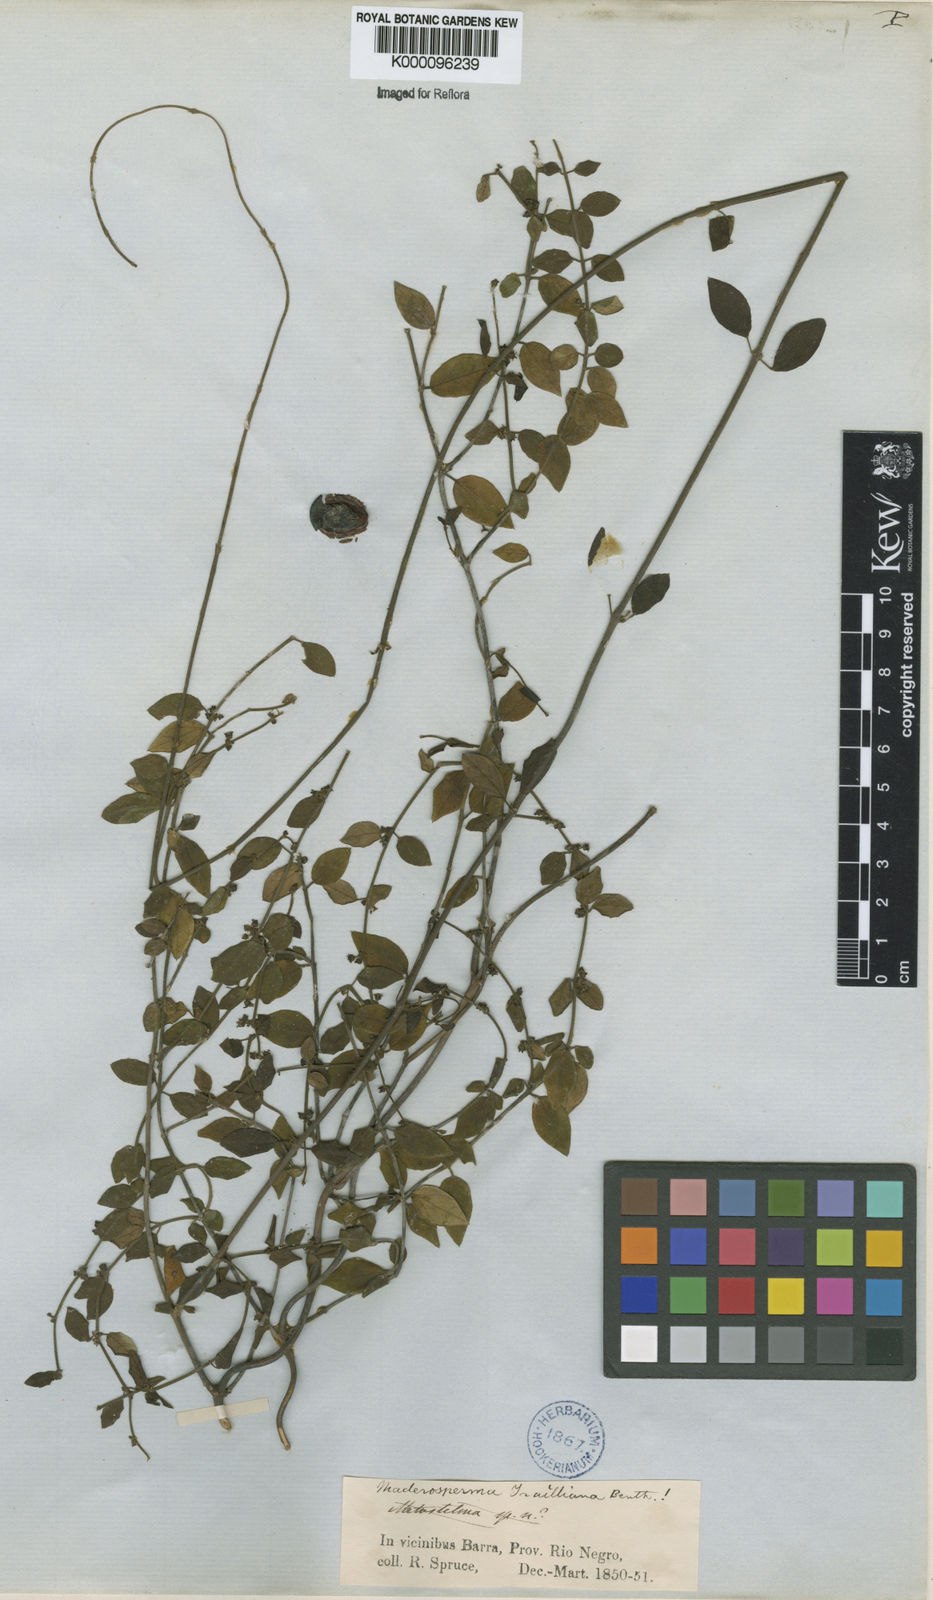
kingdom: Plantae
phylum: Tracheophyta
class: Magnoliopsida
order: Gentianales
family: Apocynaceae
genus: Tassadia
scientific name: Tassadia trailiana
